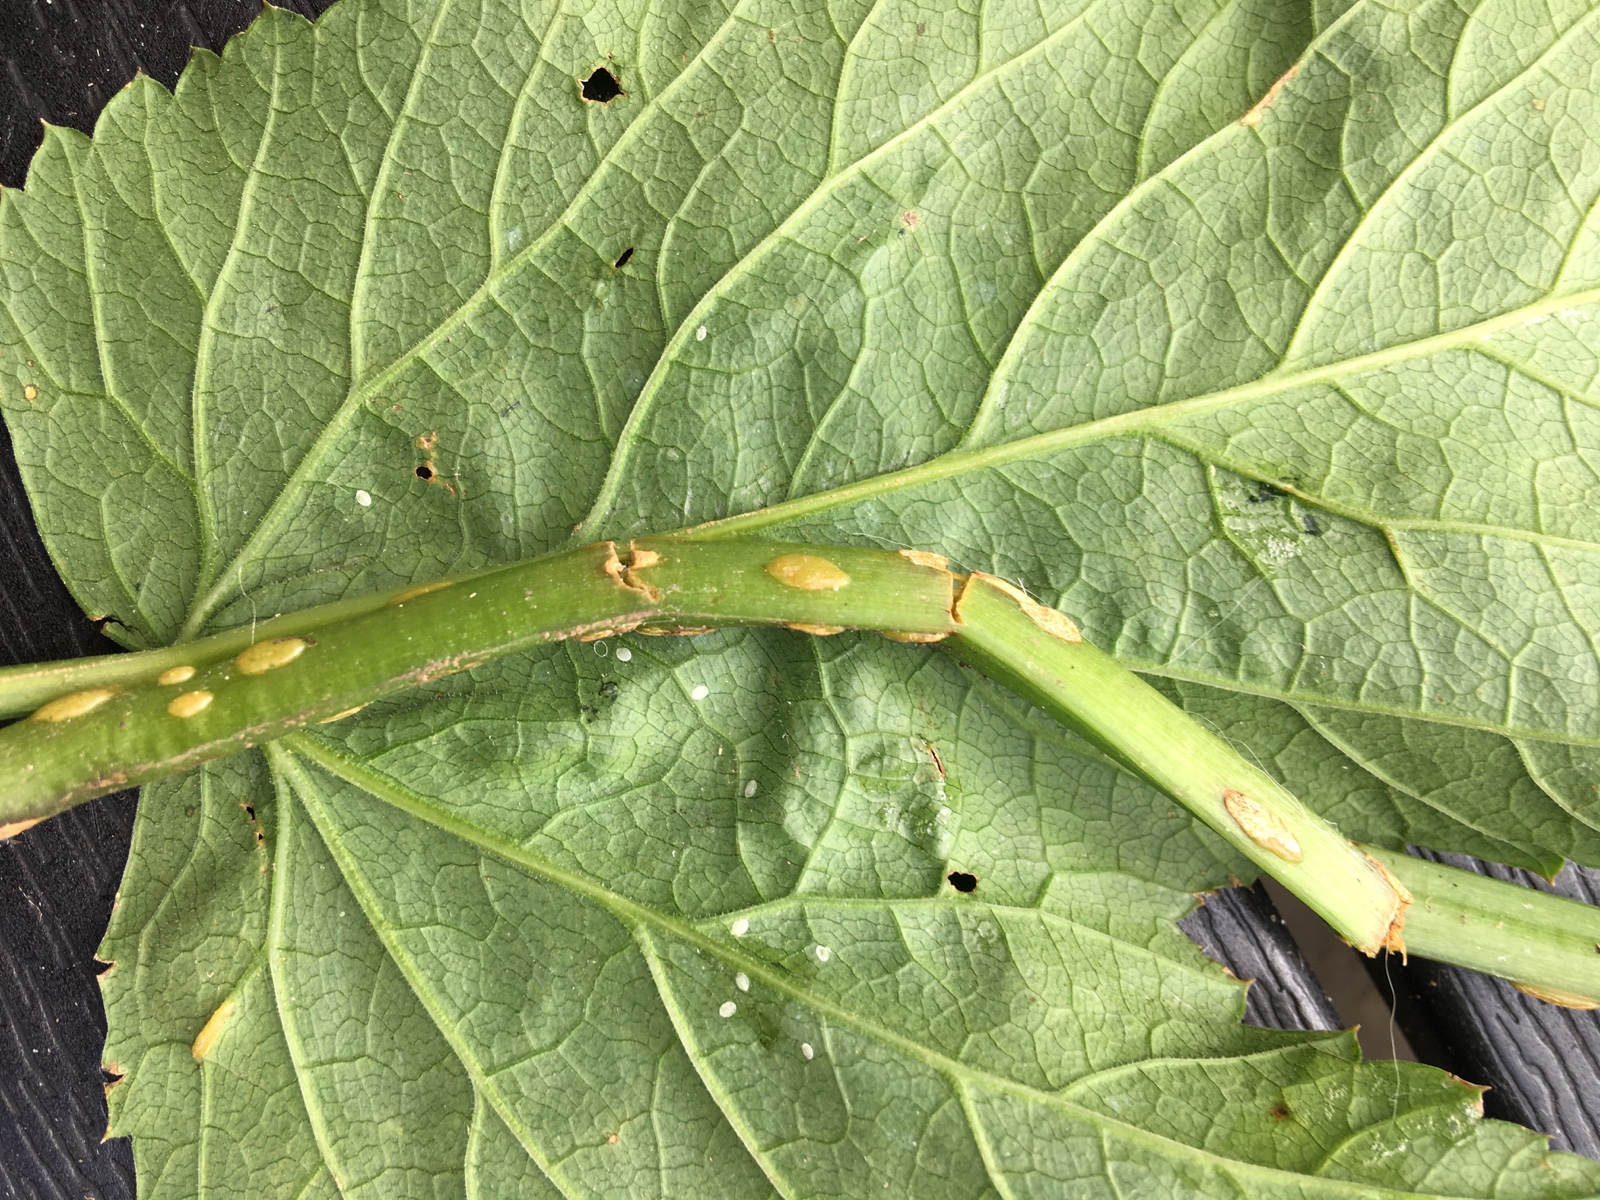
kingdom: Fungi
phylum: Ascomycota
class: Taphrinomycetes
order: Taphrinales
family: Taphrinaceae
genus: Protomyces
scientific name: Protomyces macrosporus
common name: skvalderkål-vablesæk
